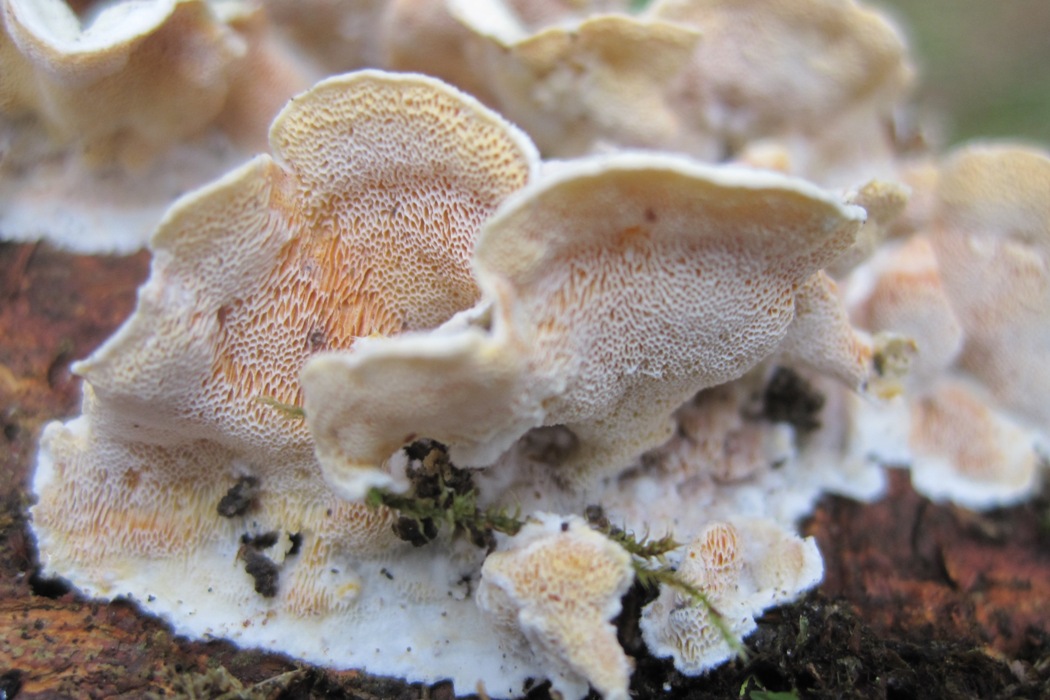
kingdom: Fungi
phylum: Basidiomycota
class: Agaricomycetes
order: Polyporales
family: Incrustoporiaceae
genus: Skeletocutis
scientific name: Skeletocutis amorpha
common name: orange krystalporesvamp
